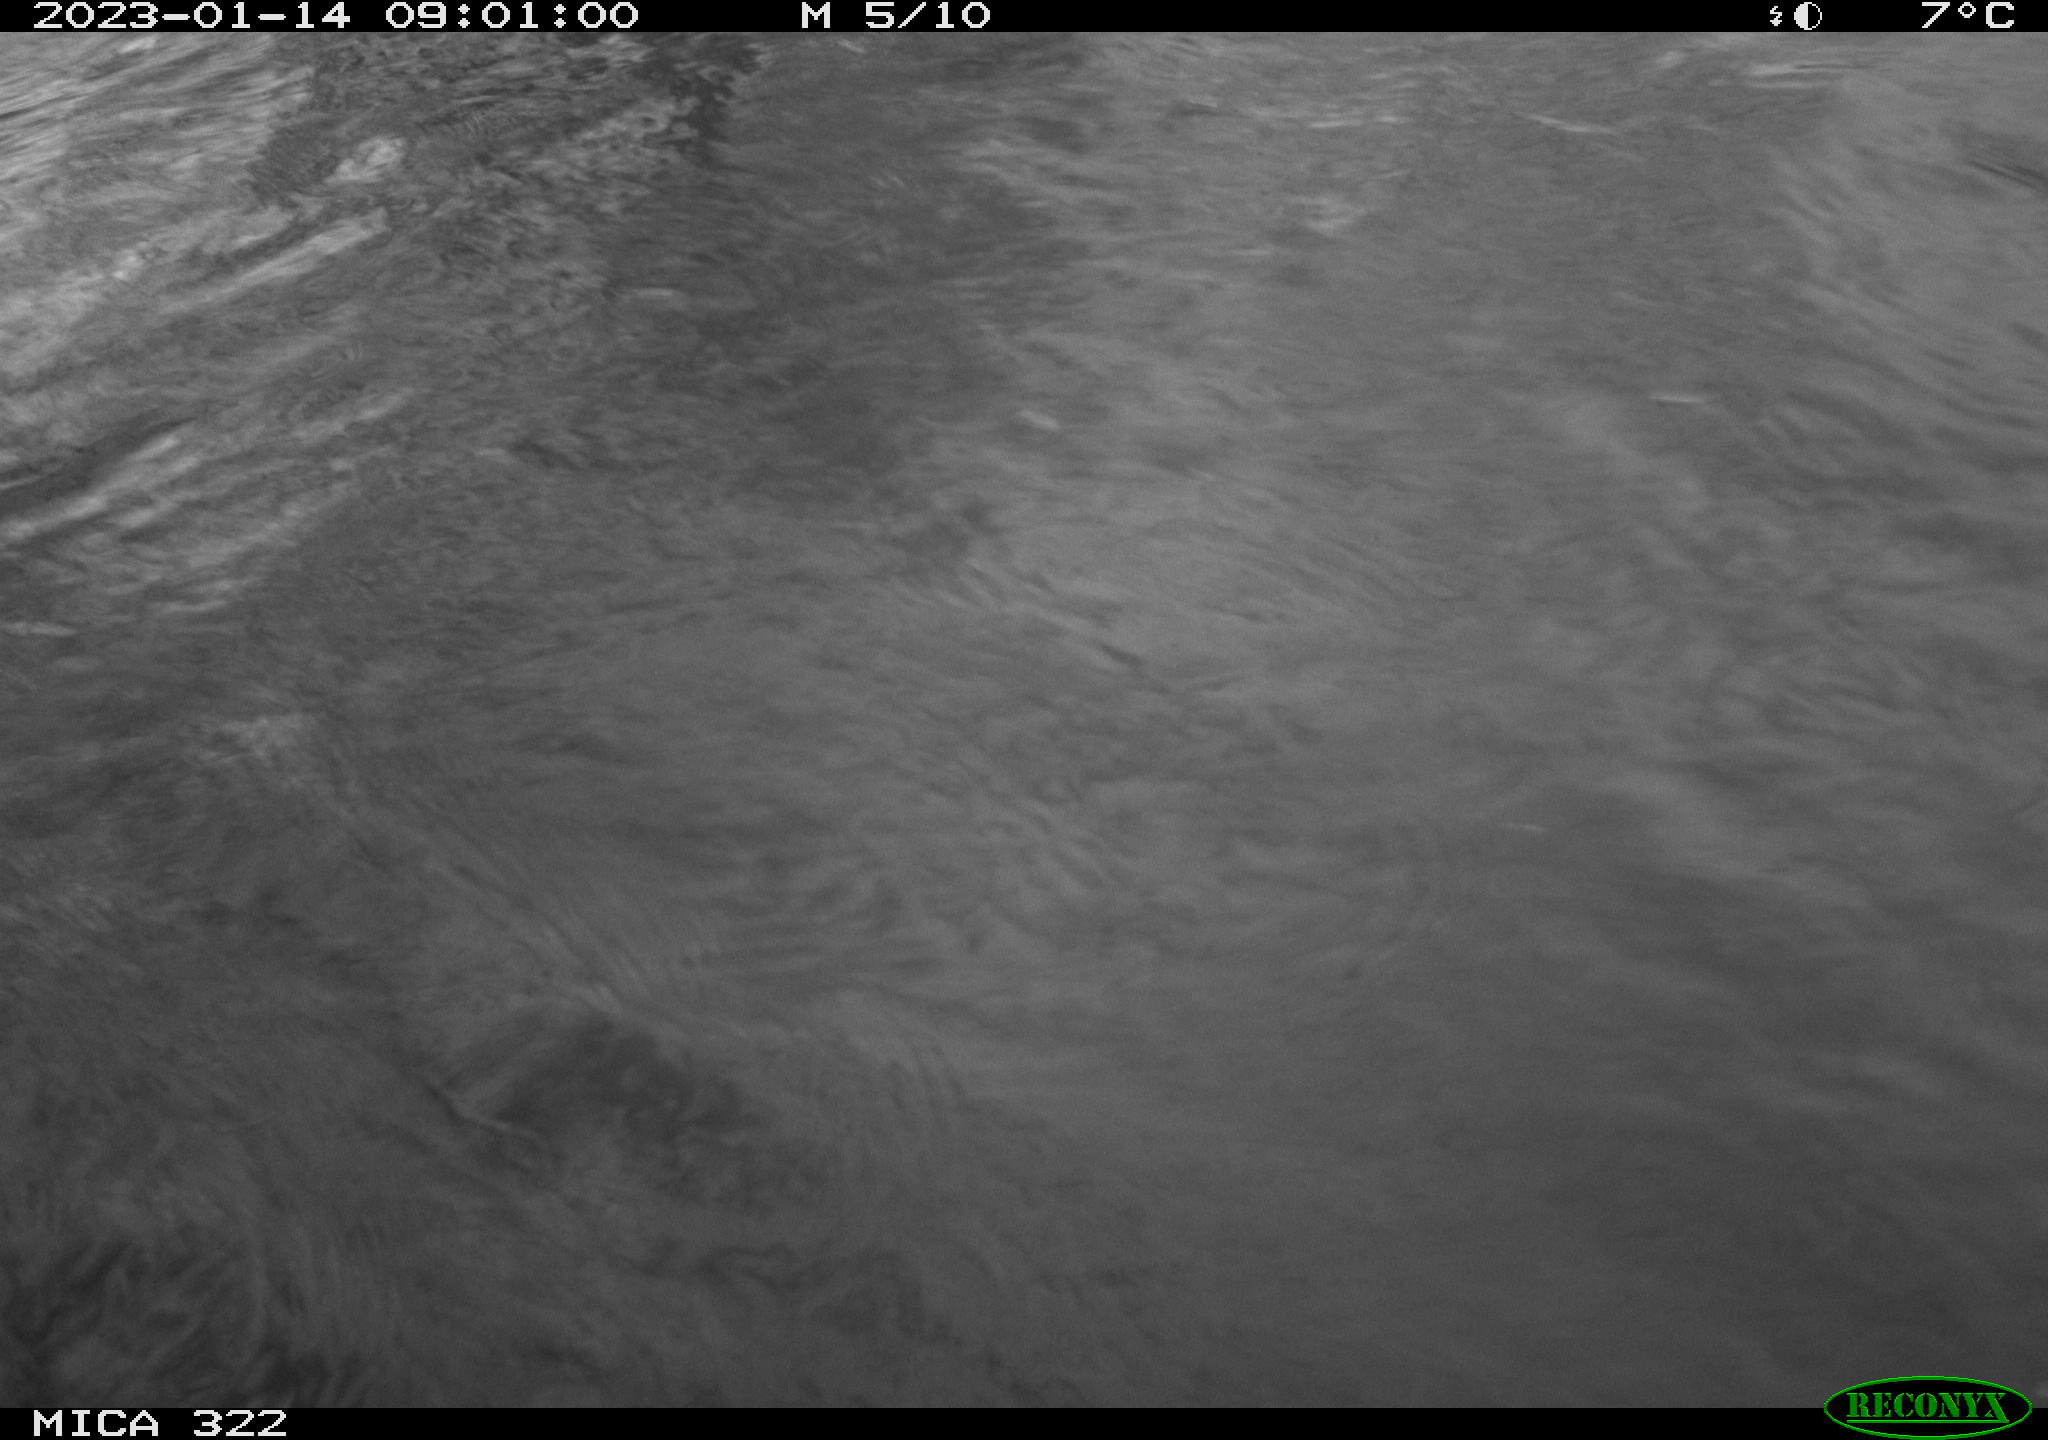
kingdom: Animalia
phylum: Chordata
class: Aves
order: Anseriformes
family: Anatidae
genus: Anas
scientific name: Anas
